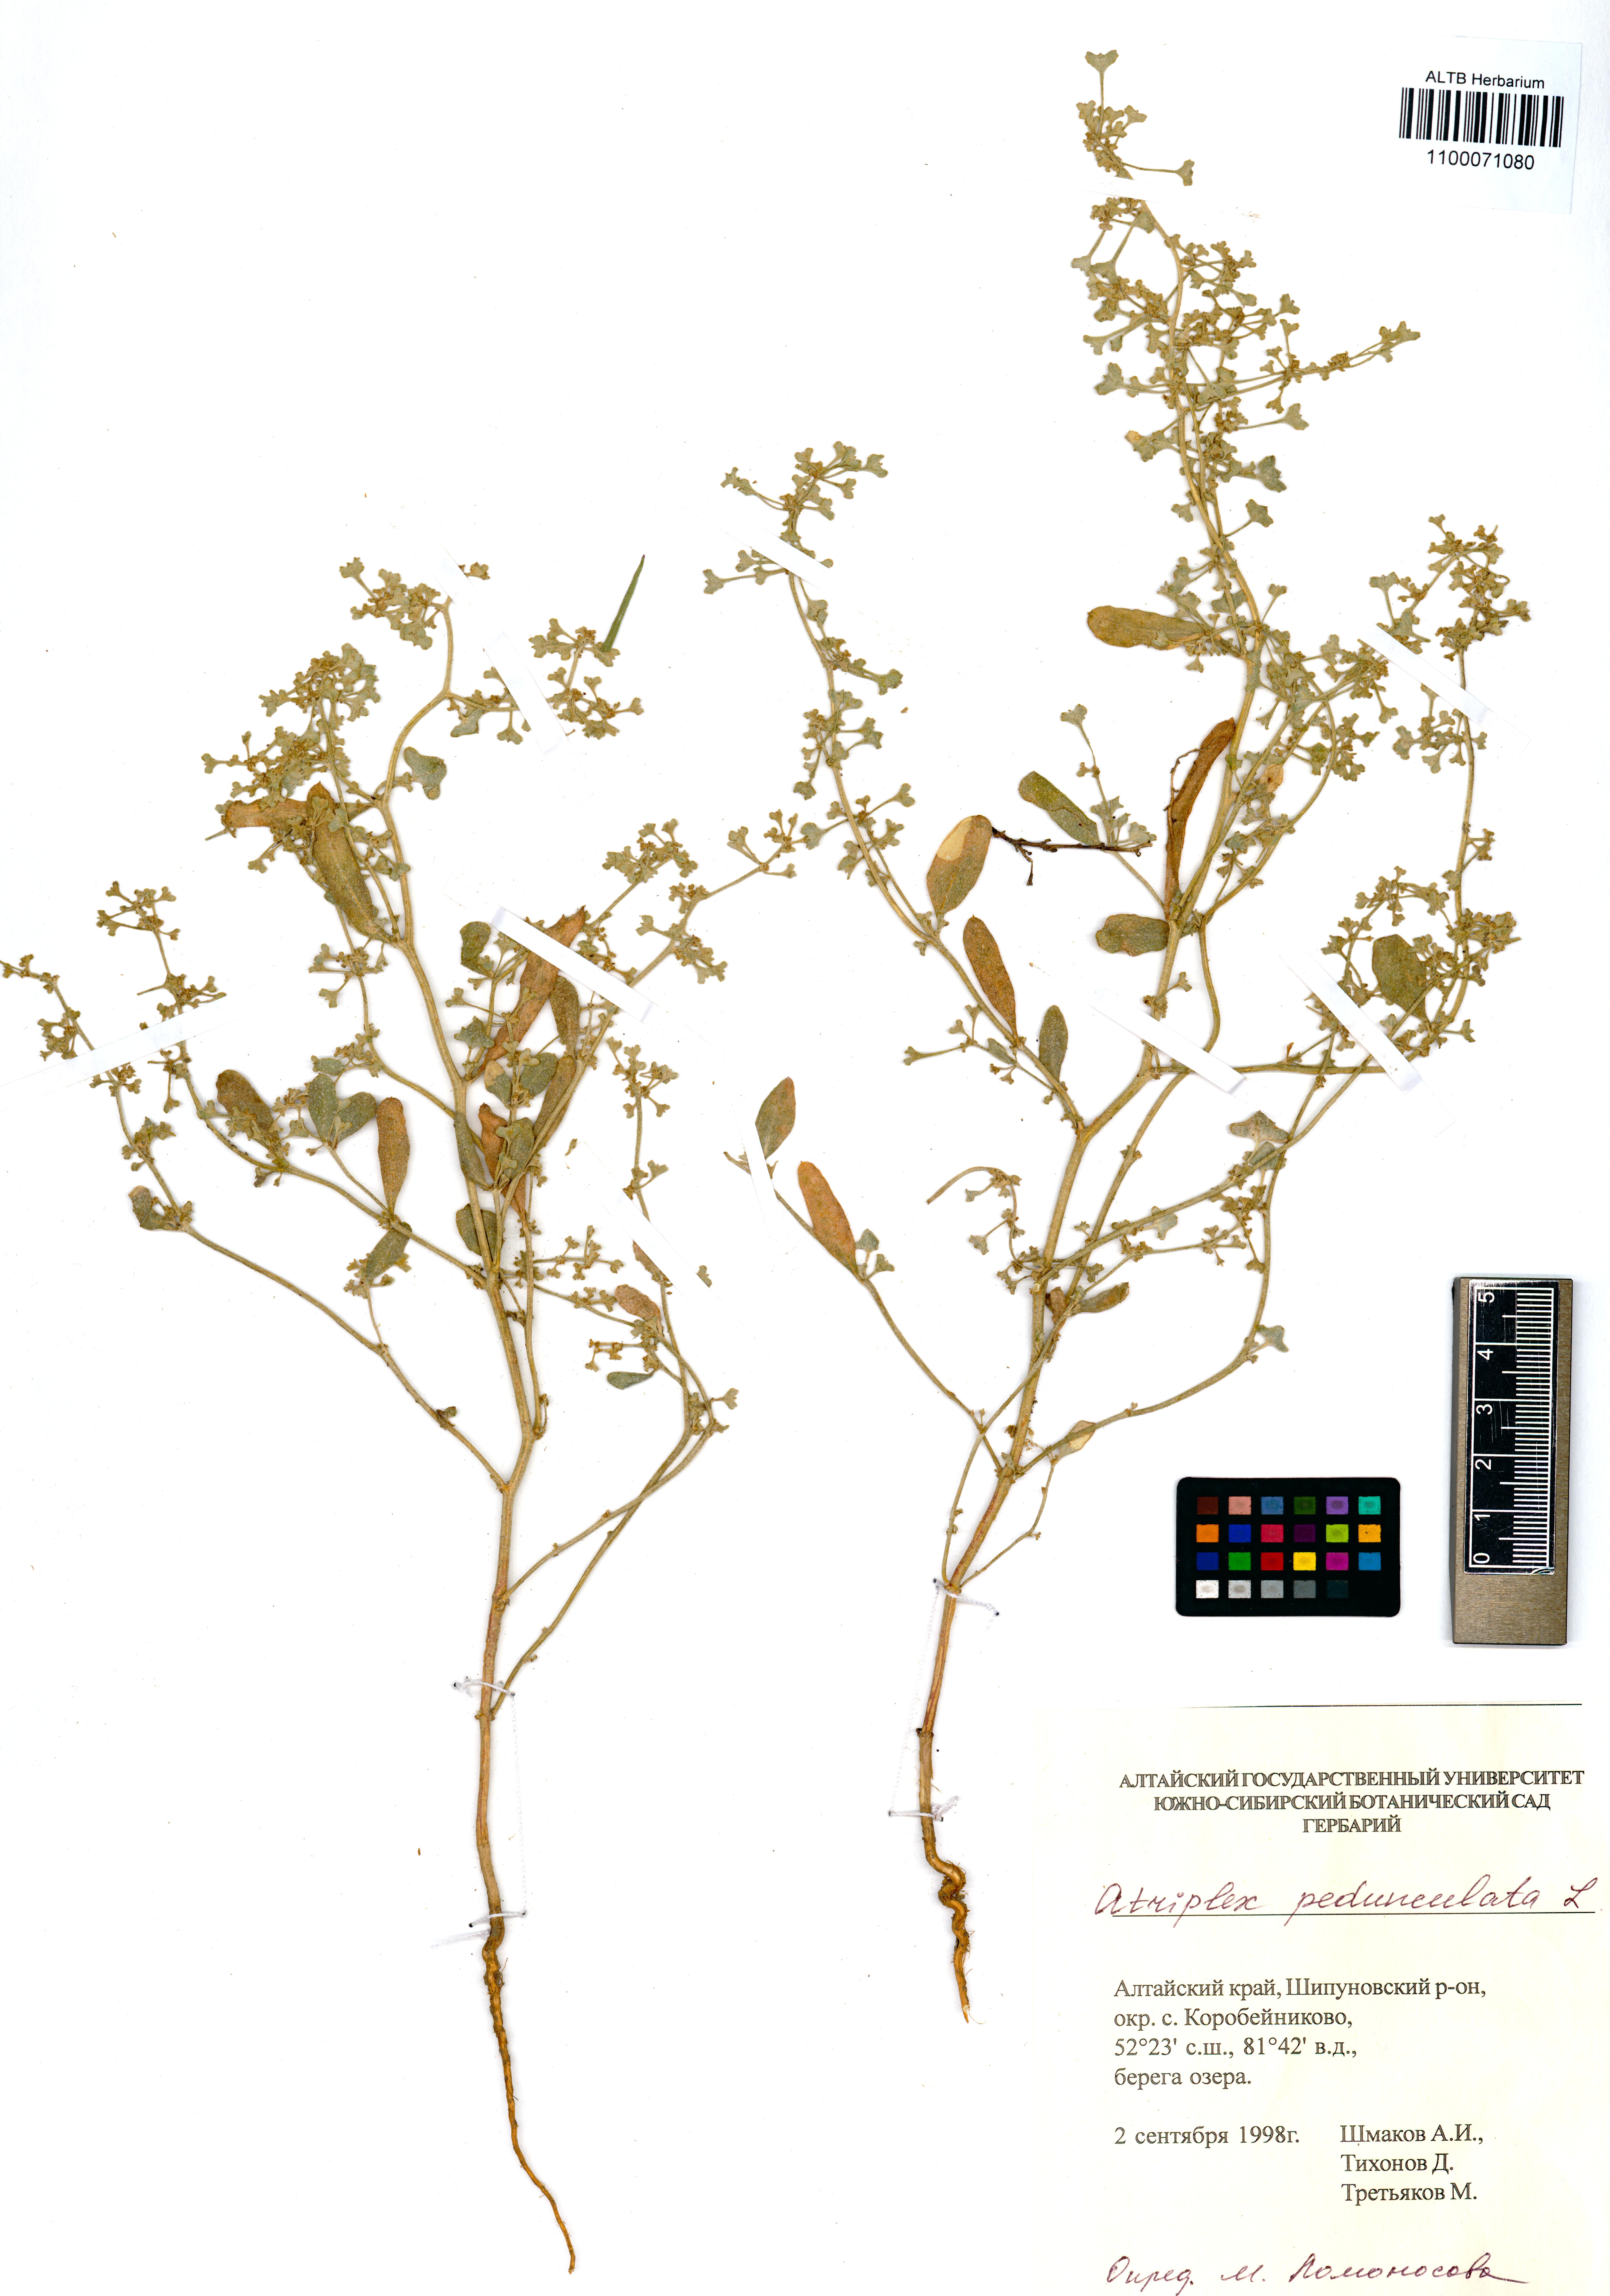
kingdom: Plantae
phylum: Tracheophyta
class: Magnoliopsida
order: Caryophyllales
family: Amaranthaceae
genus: Halimione
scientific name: Halimione pedunculata
